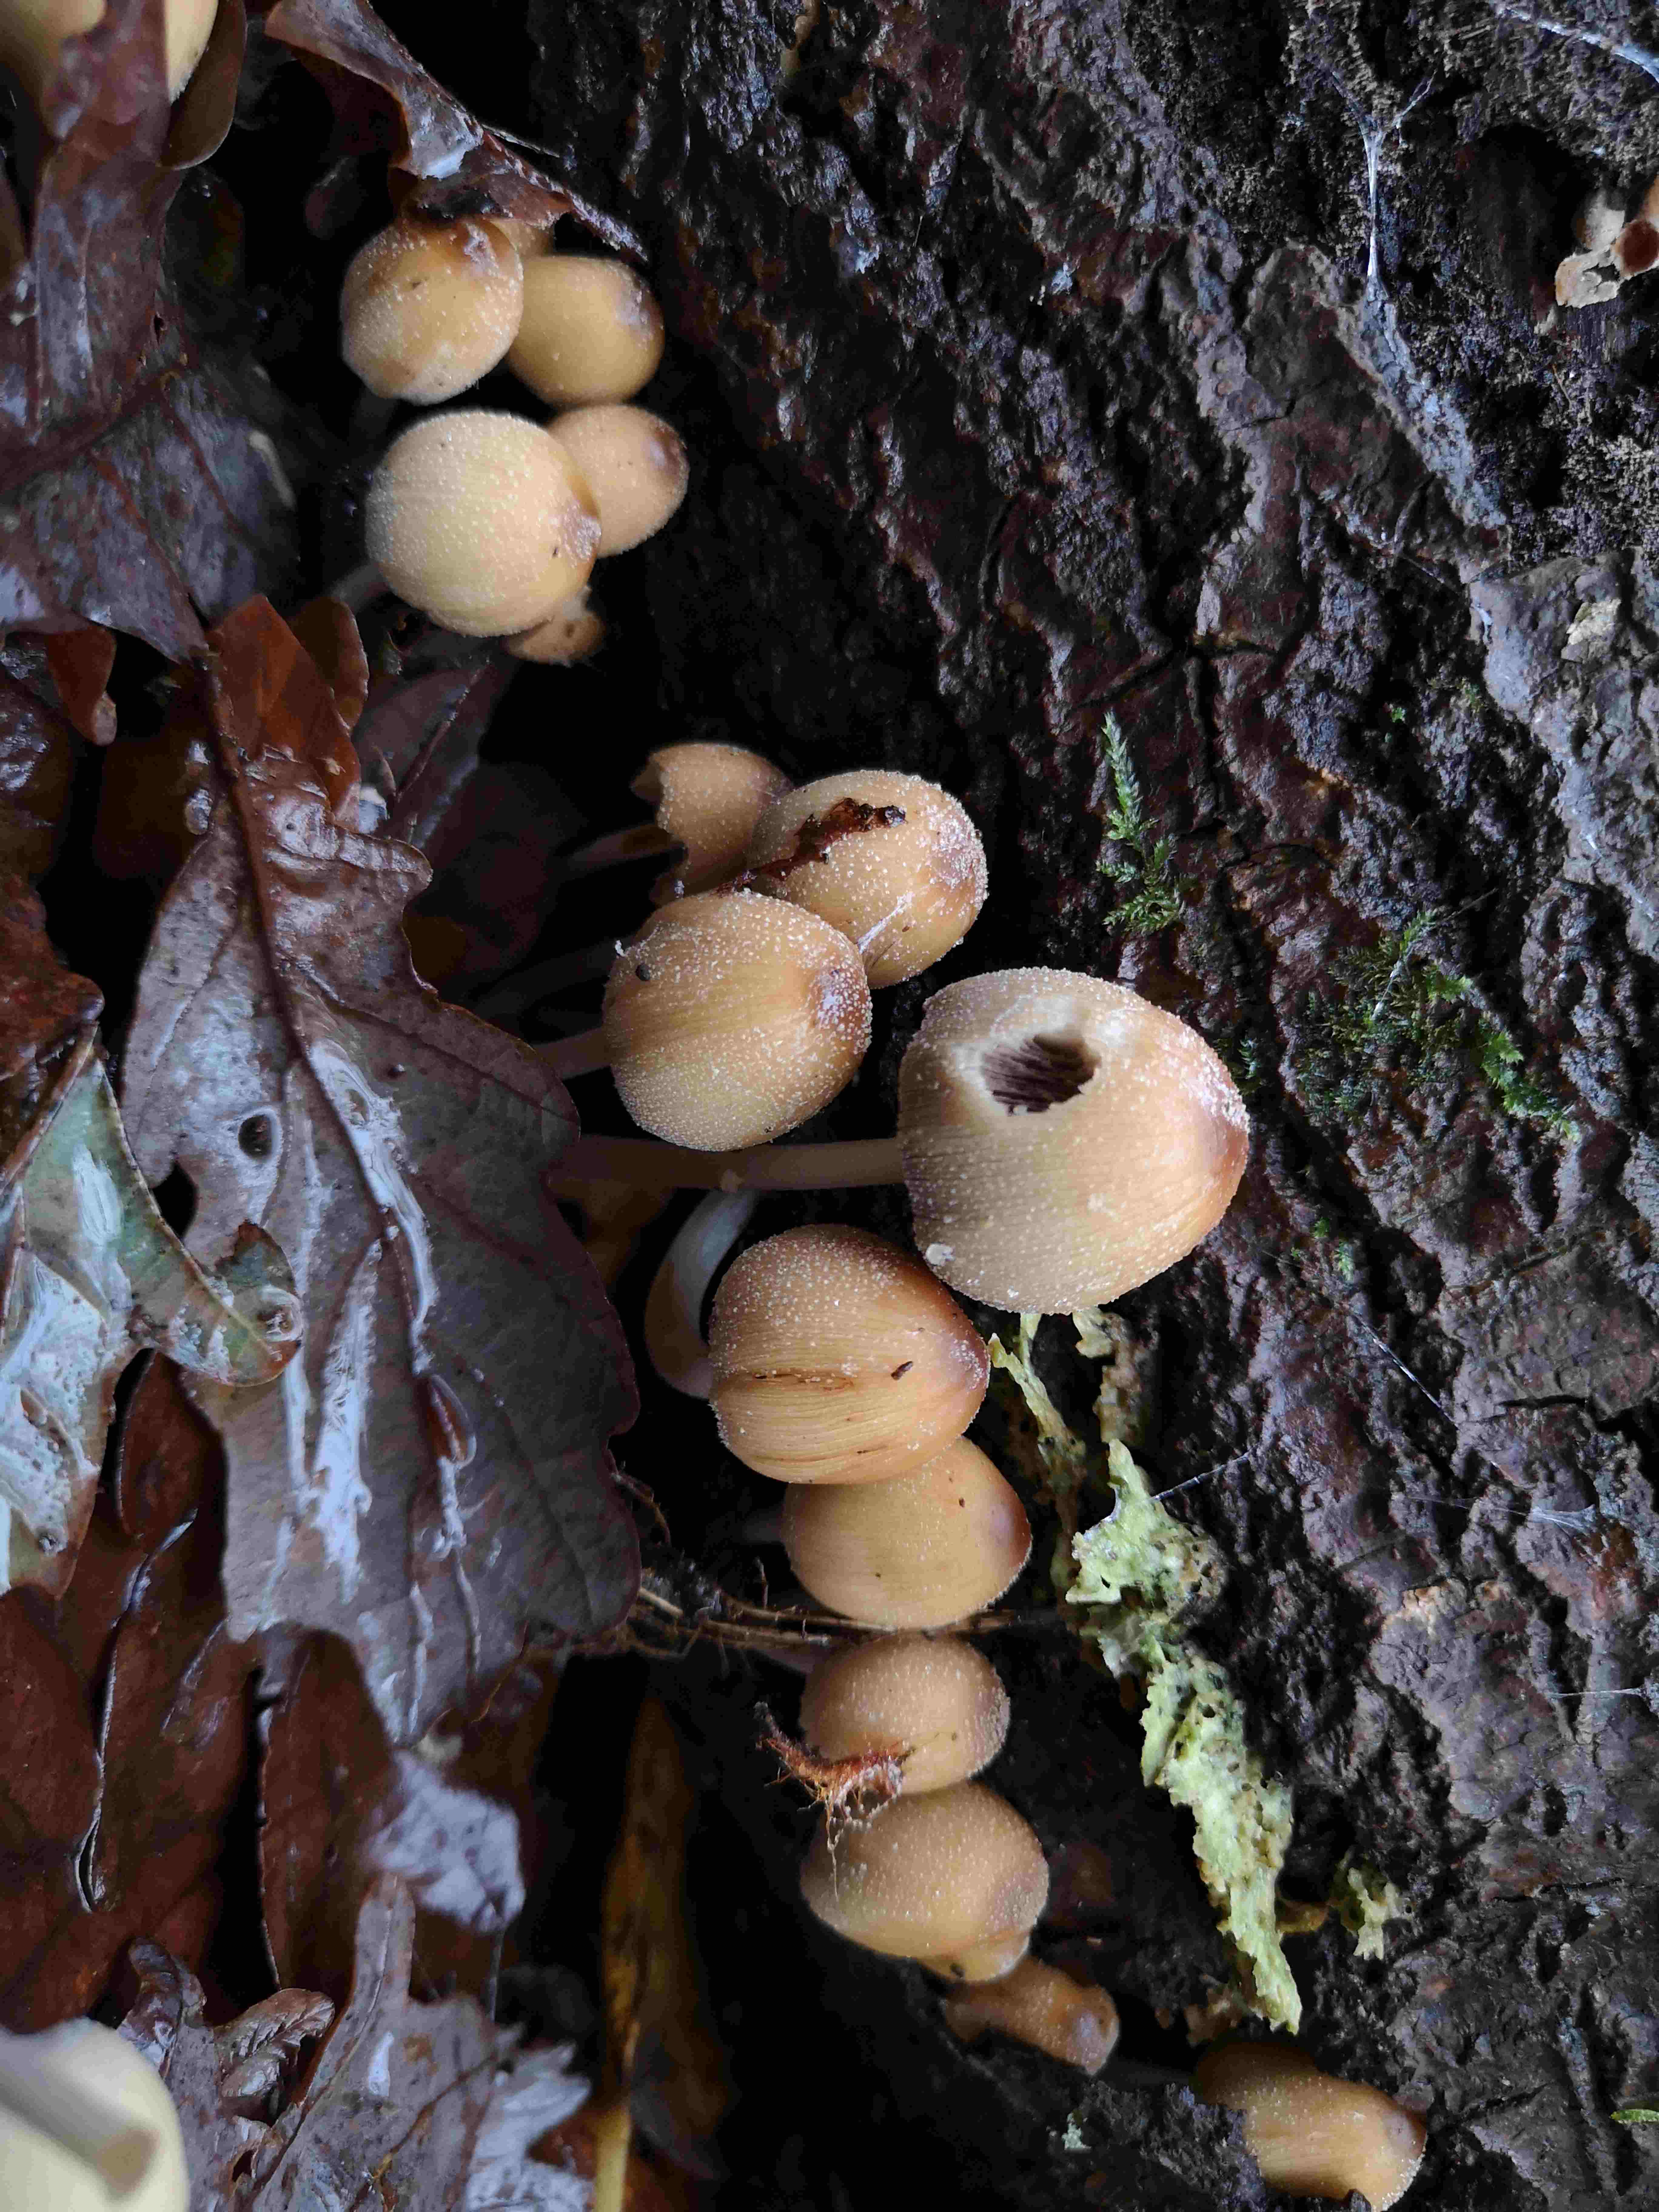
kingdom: Fungi
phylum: Basidiomycota
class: Agaricomycetes
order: Agaricales
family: Psathyrellaceae
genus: Coprinellus
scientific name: Coprinellus micaceus
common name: glimmer-blækhat
